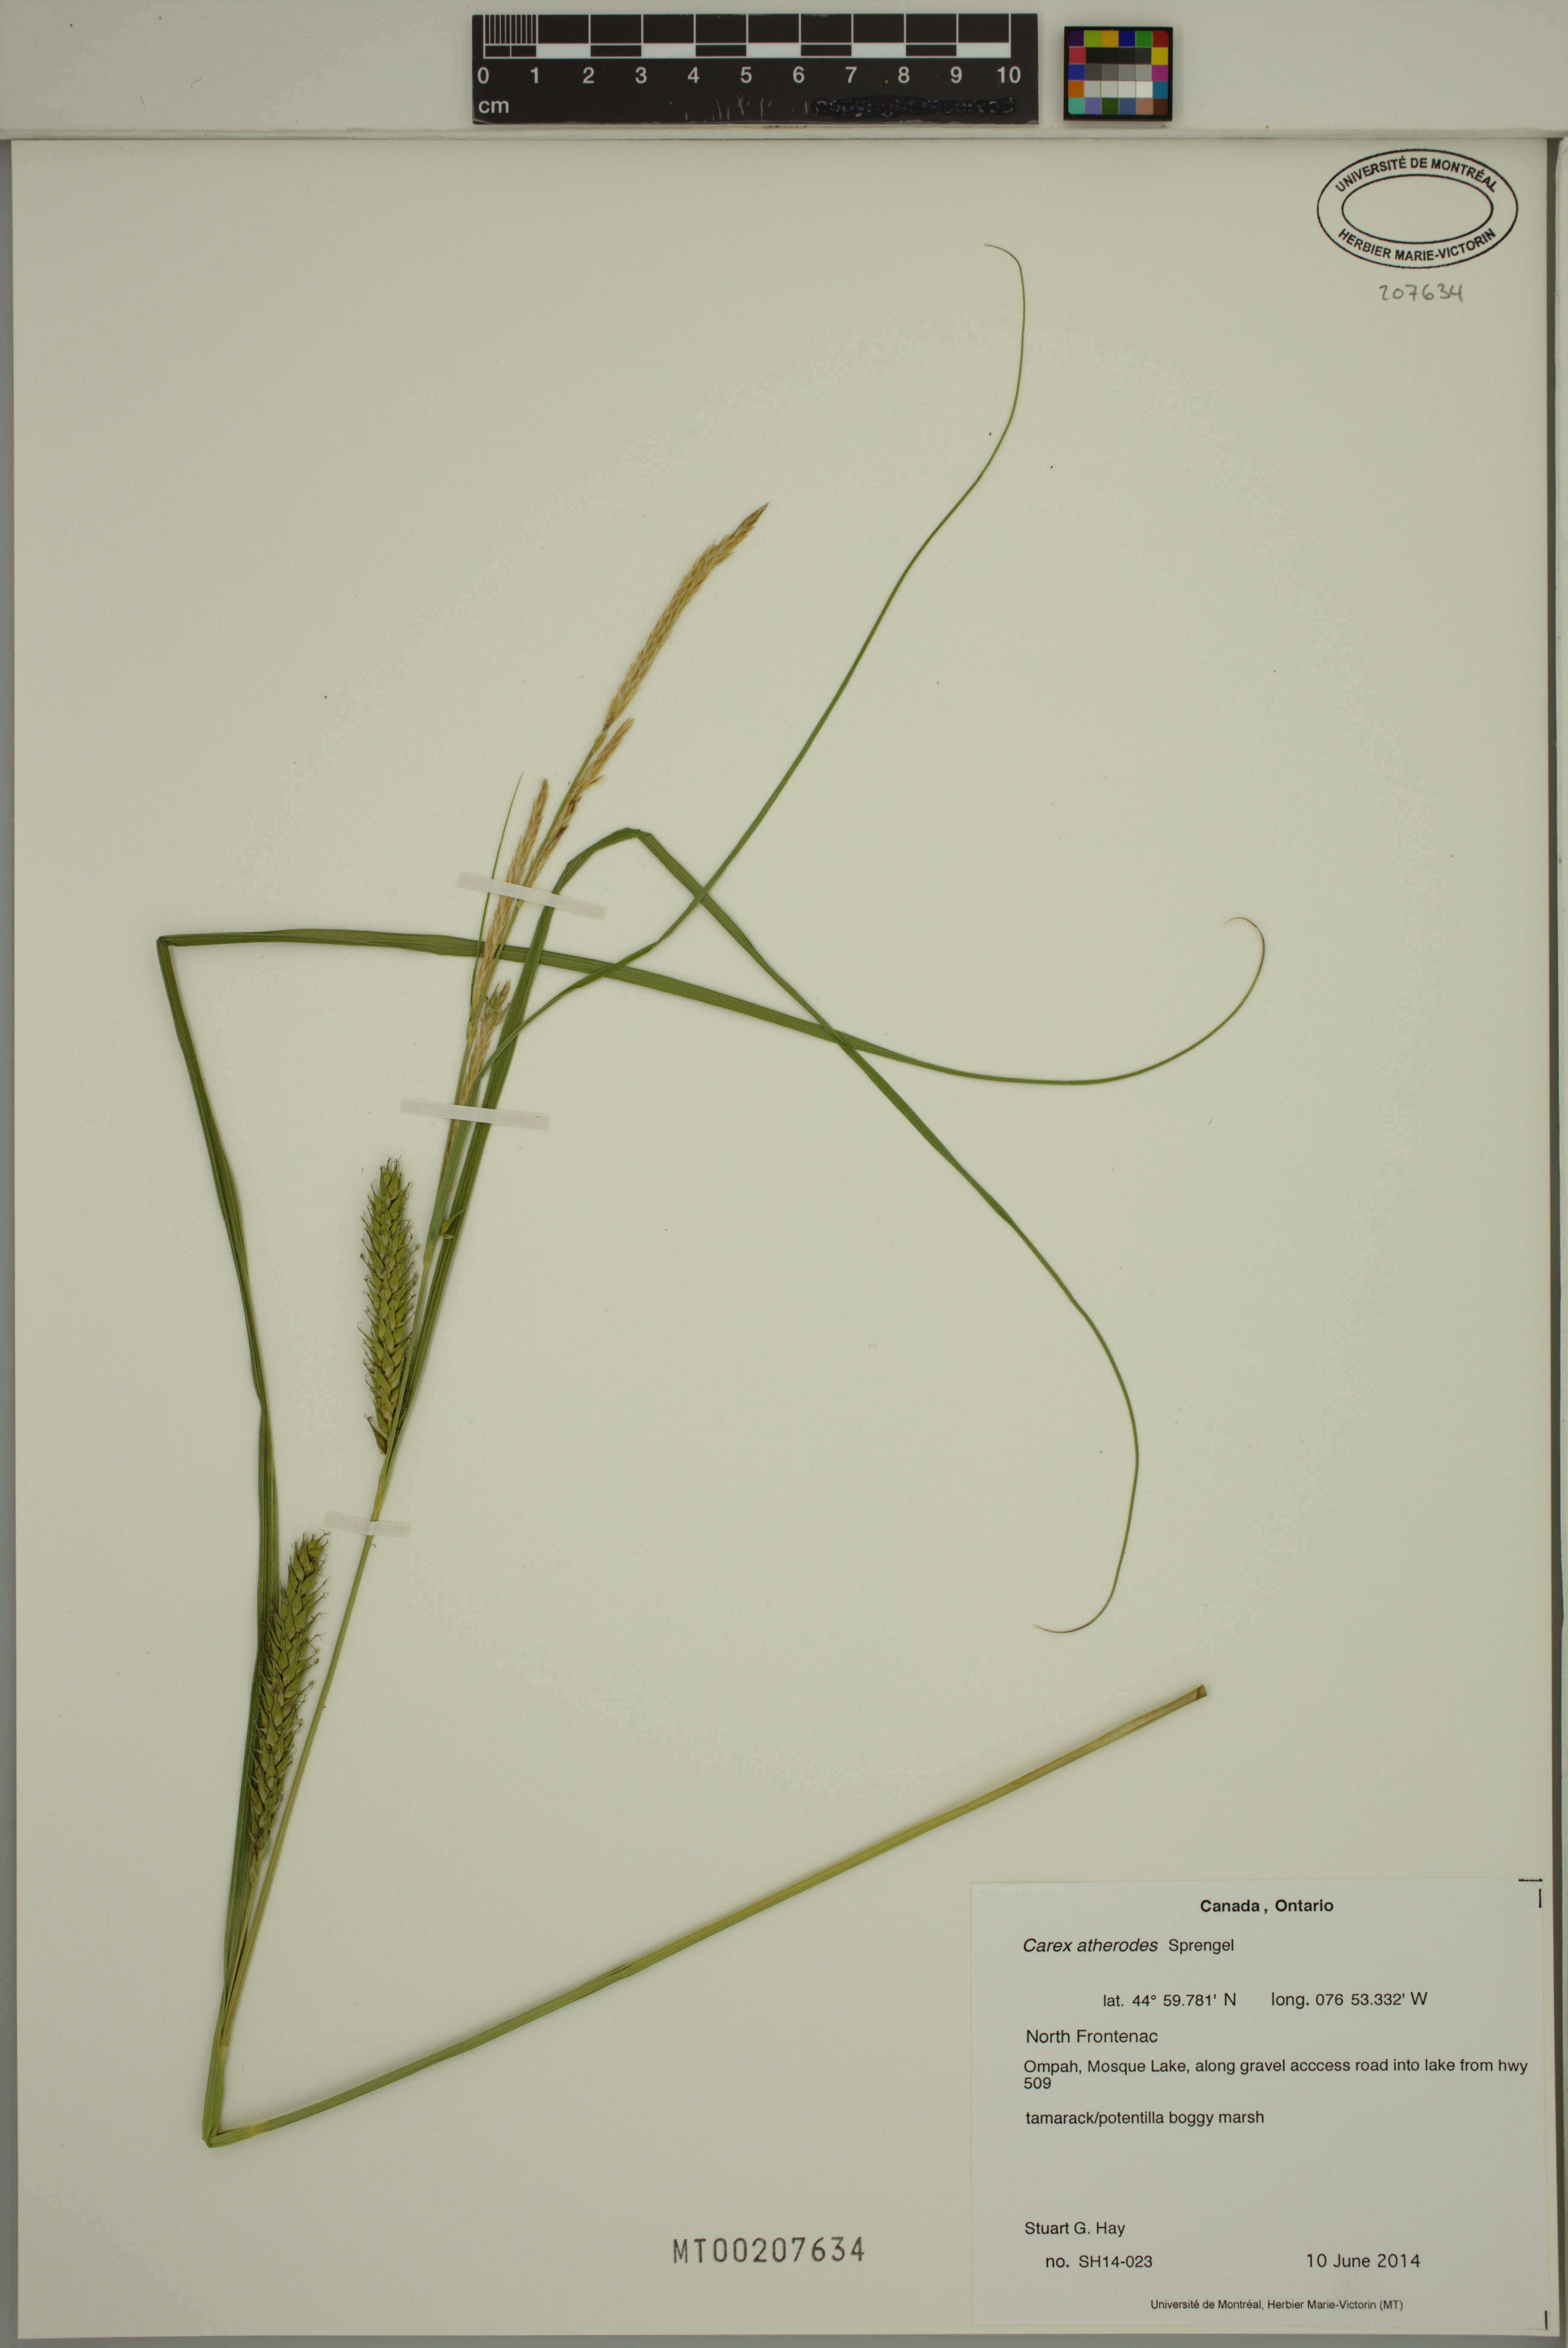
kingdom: Plantae
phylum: Tracheophyta
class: Liliopsida
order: Poales
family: Cyperaceae
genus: Carex
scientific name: Carex atherodes
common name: Wheat sedge
